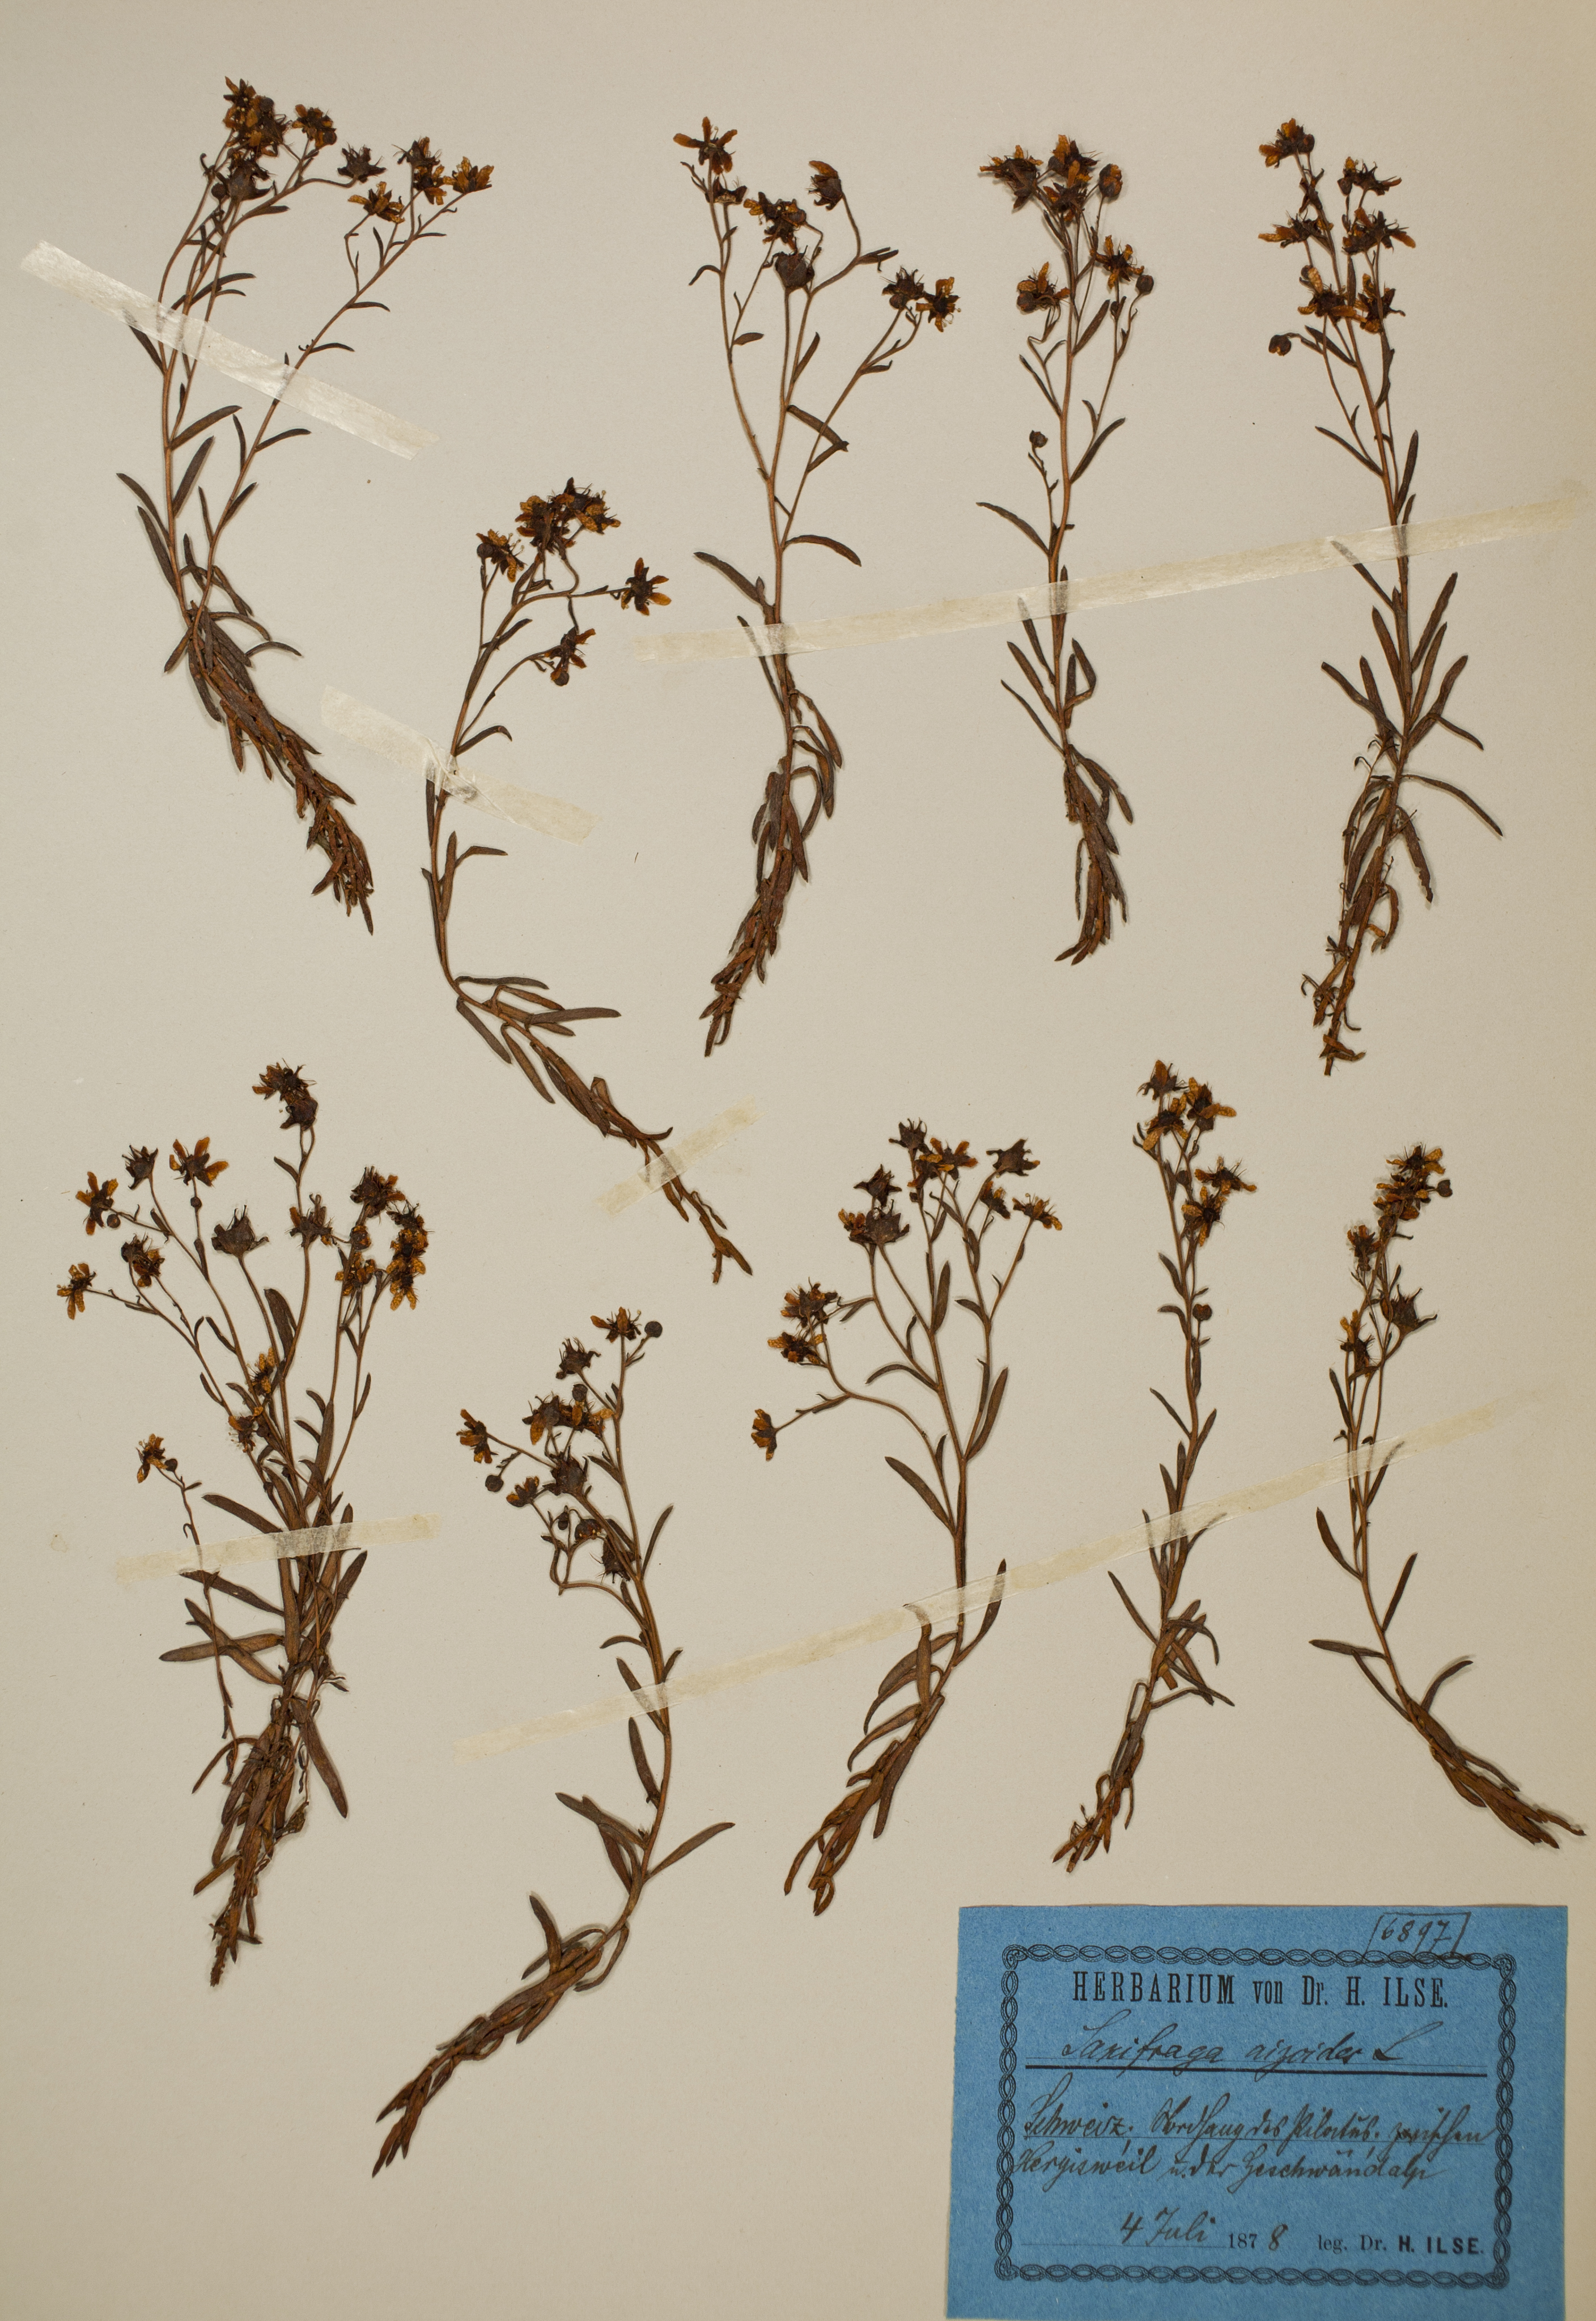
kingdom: Plantae
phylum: Tracheophyta
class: Magnoliopsida
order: Saxifragales
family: Saxifragaceae
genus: Saxifraga
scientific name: Saxifraga aizoides
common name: Yellow mountain saxifrage
